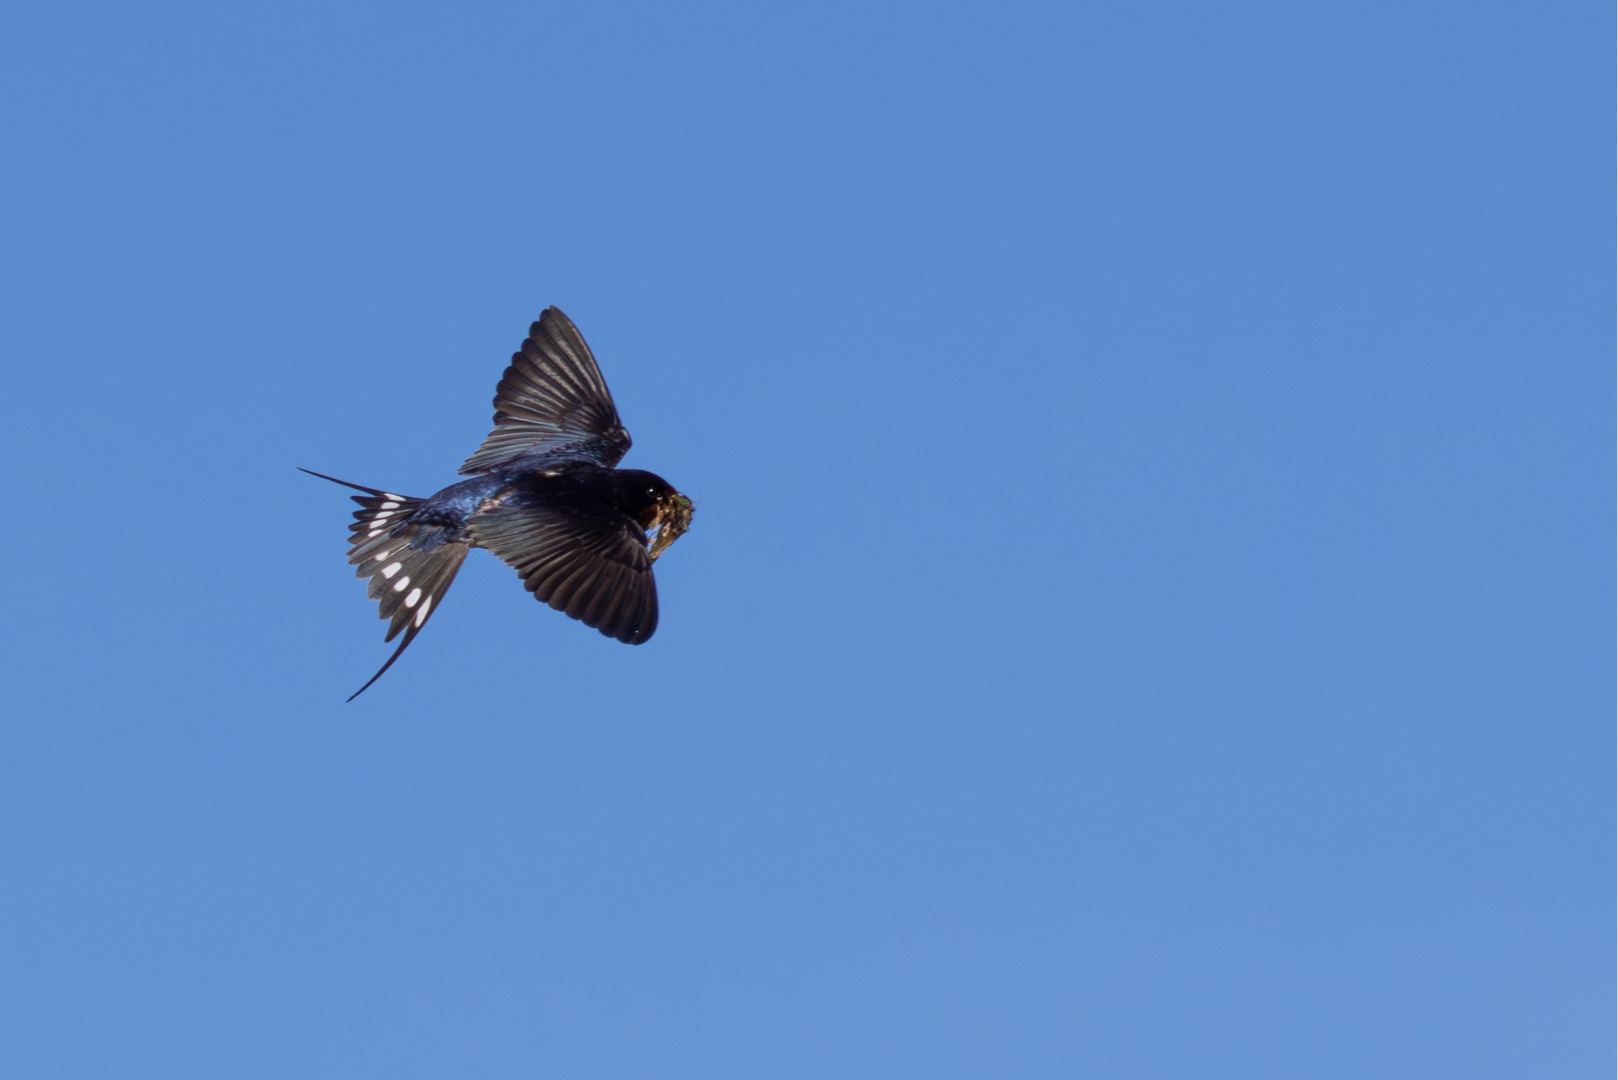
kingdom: Animalia
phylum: Chordata
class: Aves
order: Passeriformes
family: Hirundinidae
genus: Hirundo
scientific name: Hirundo rustica
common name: Landsvale
